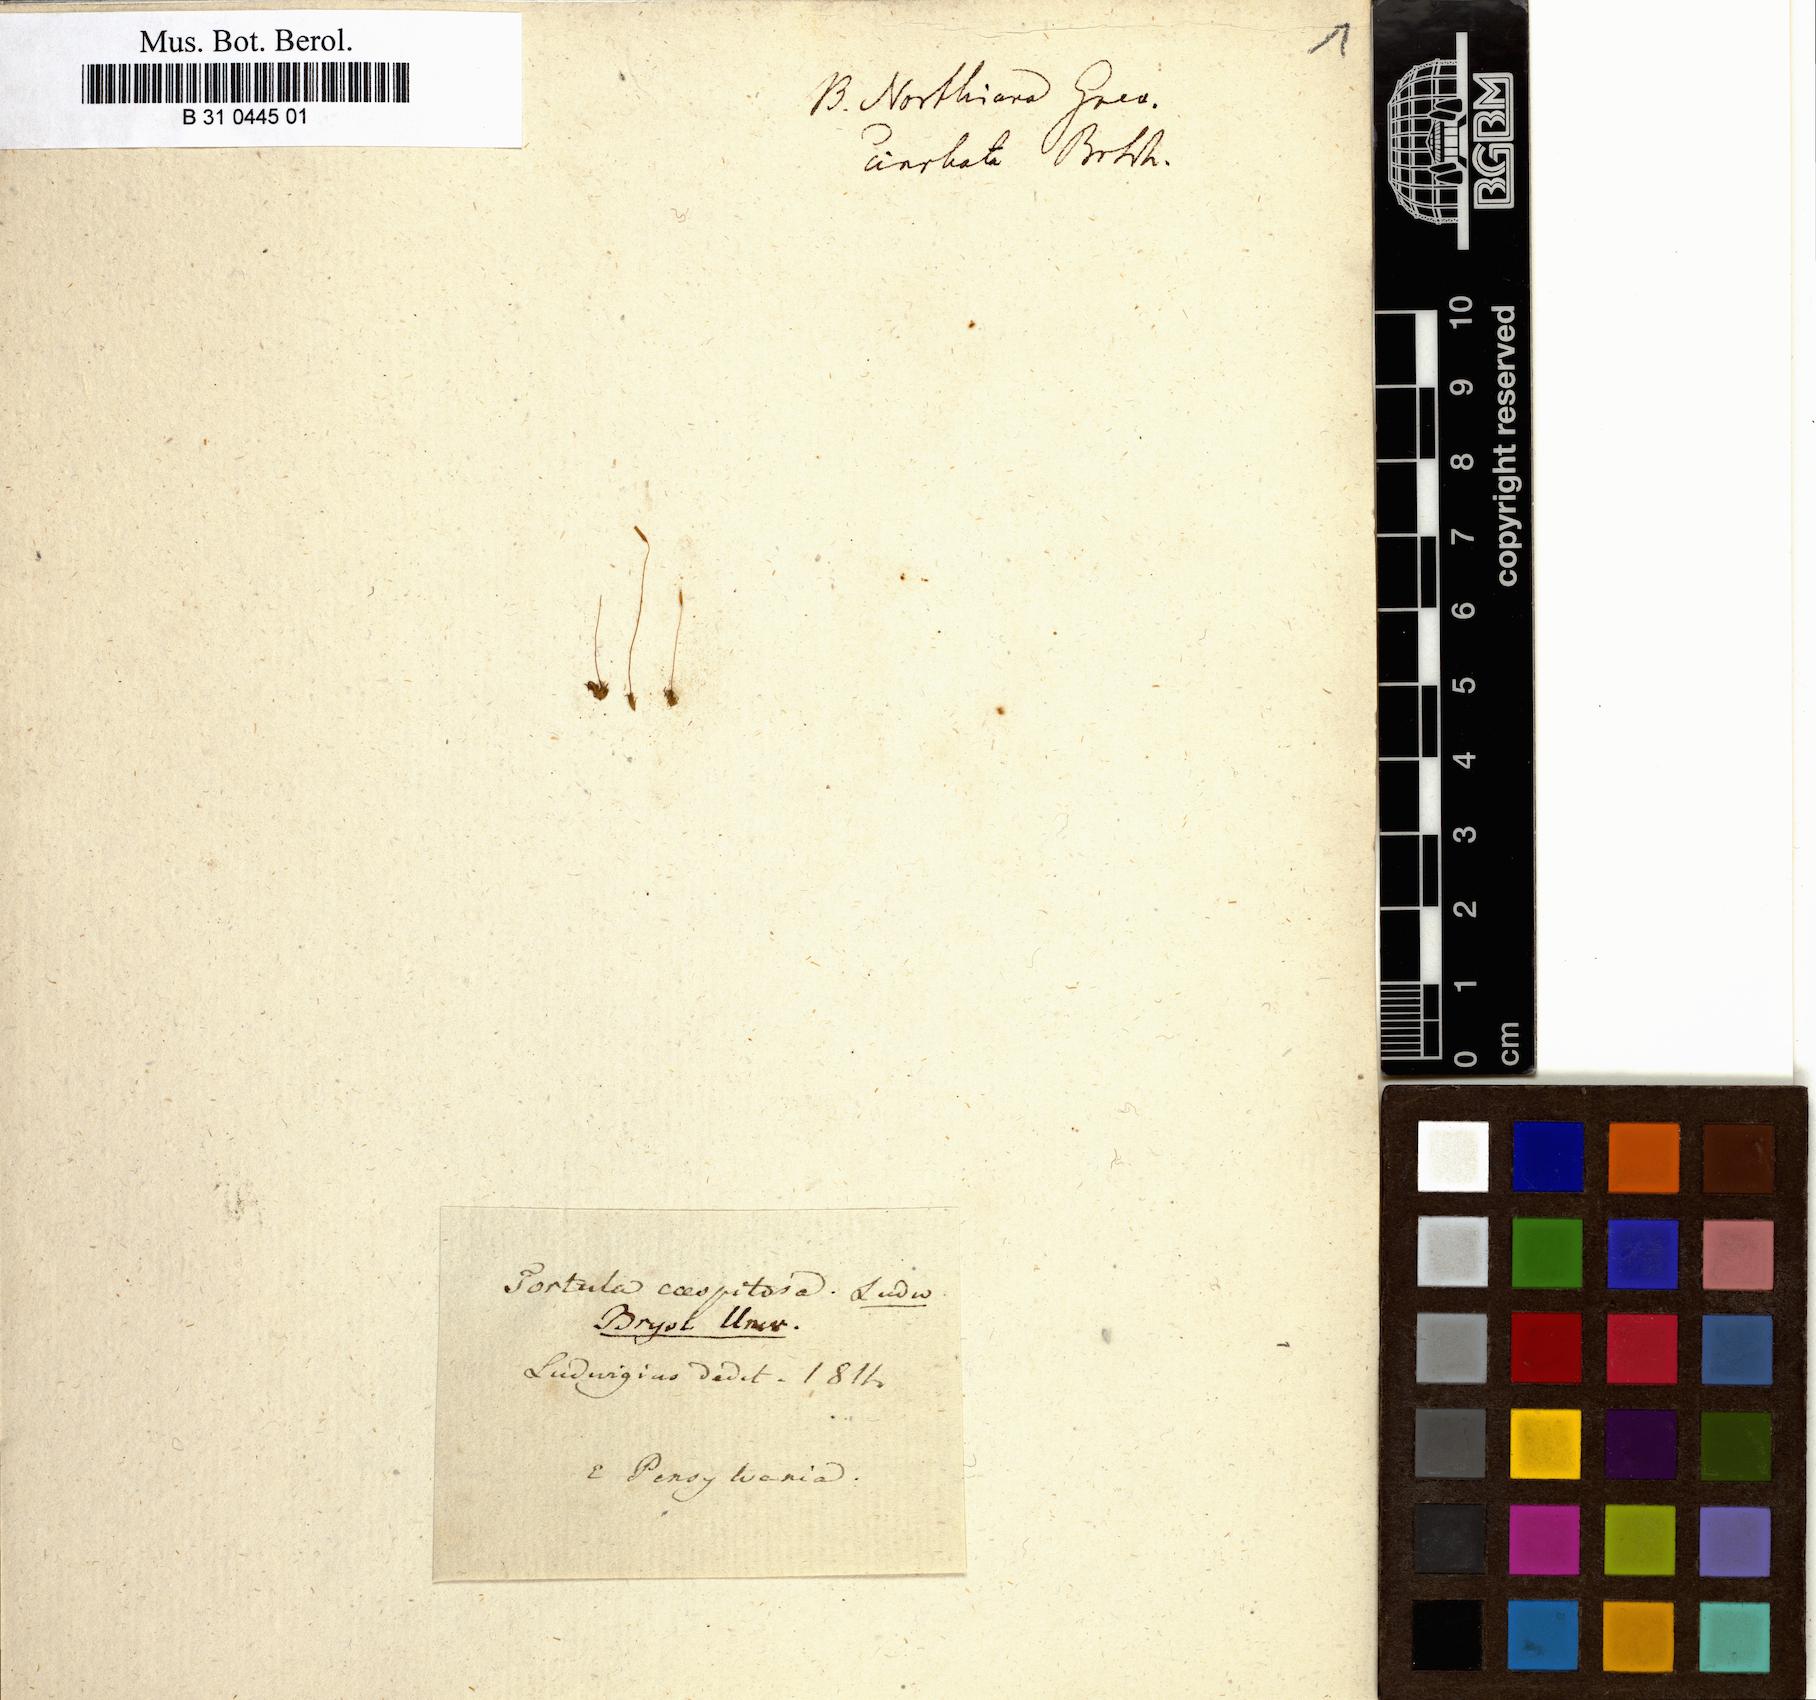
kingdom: Plantae
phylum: Bryophyta
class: Bryopsida
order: Pottiales
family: Pottiaceae
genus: Tortella
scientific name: Tortella humilis
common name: Small twisted moss
